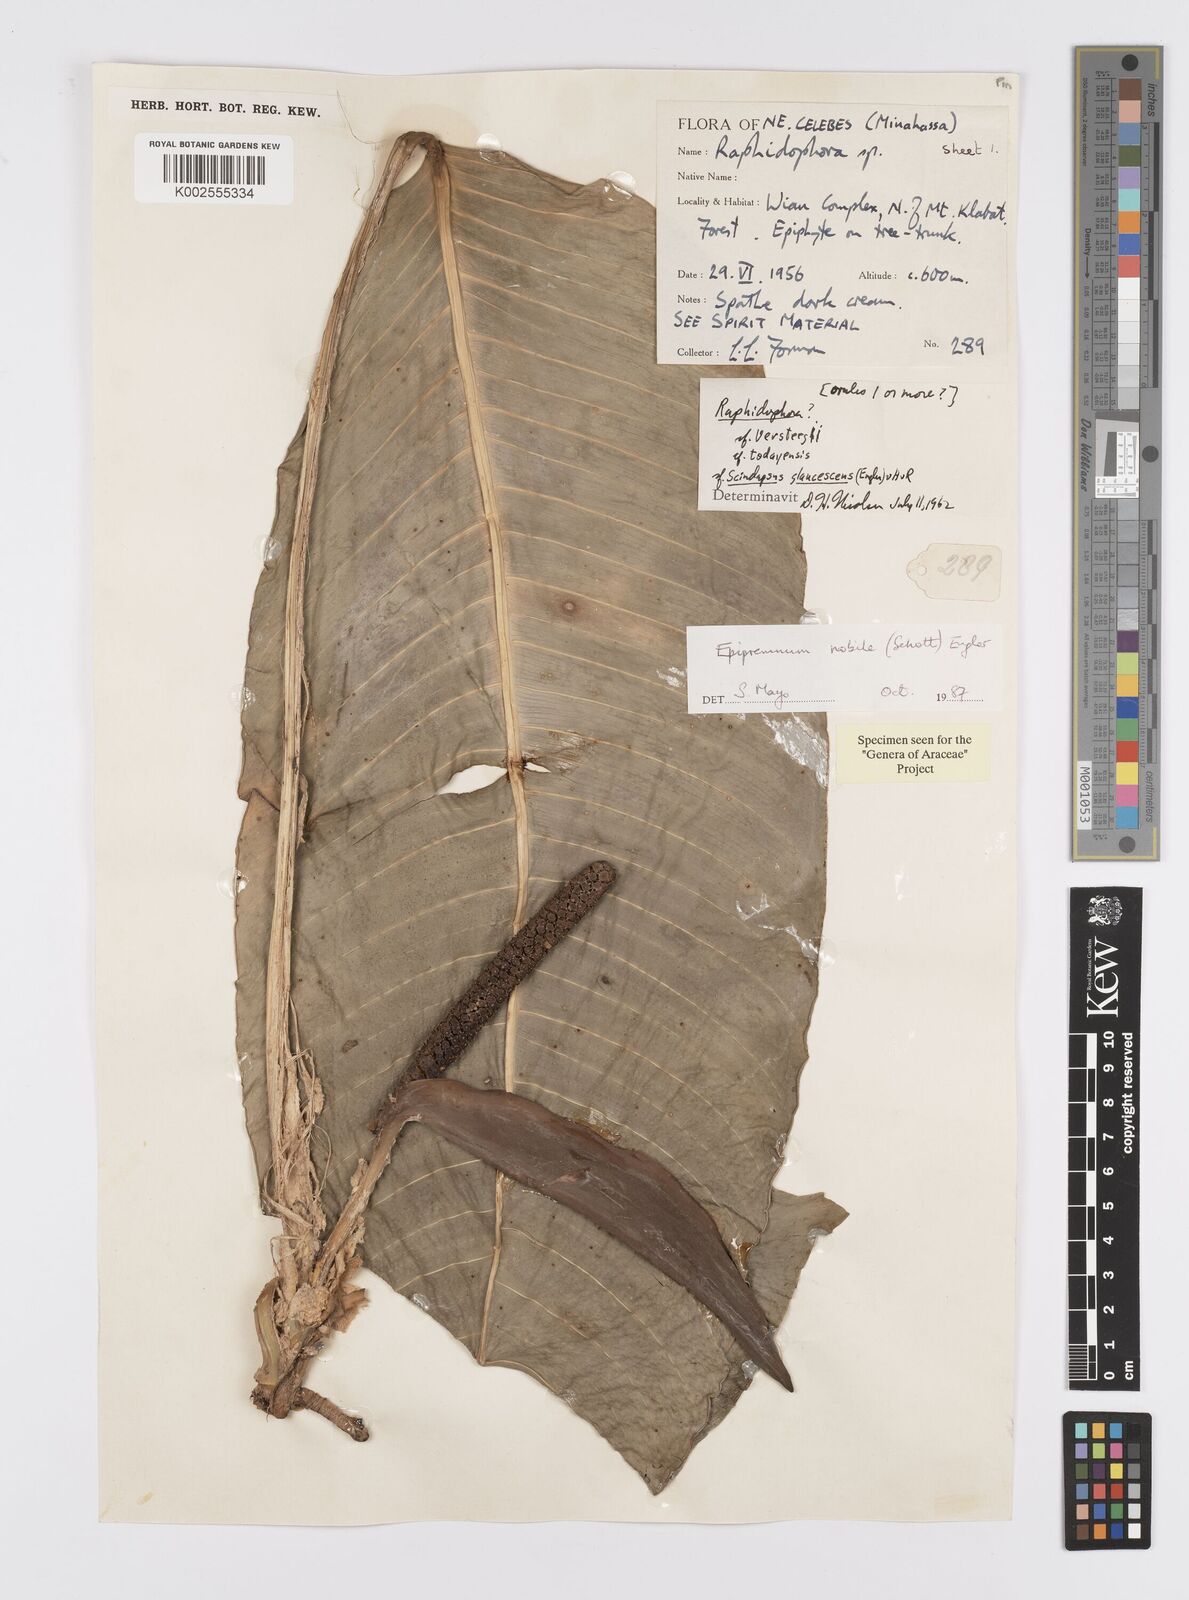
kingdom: Plantae
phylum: Tracheophyta
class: Liliopsida
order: Alismatales
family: Araceae
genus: Epipremnum
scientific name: Epipremnum nobile
